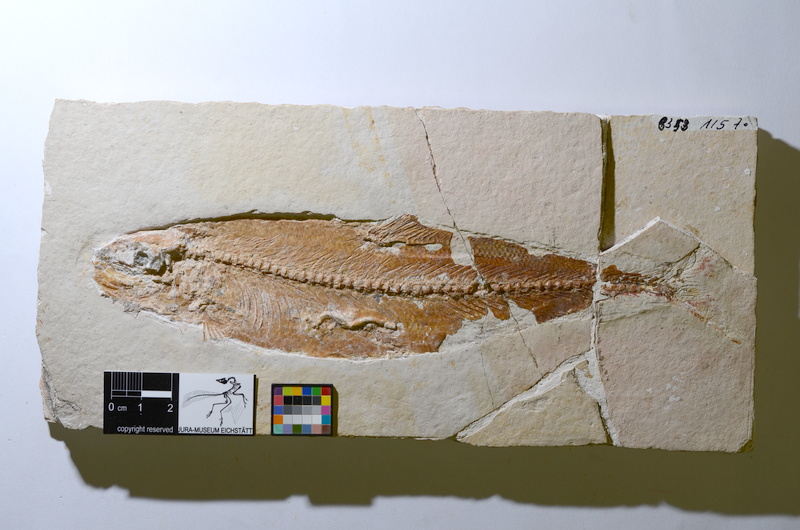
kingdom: Animalia
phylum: Chordata
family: Ascalaboidae
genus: Tharsis
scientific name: Tharsis dubius
